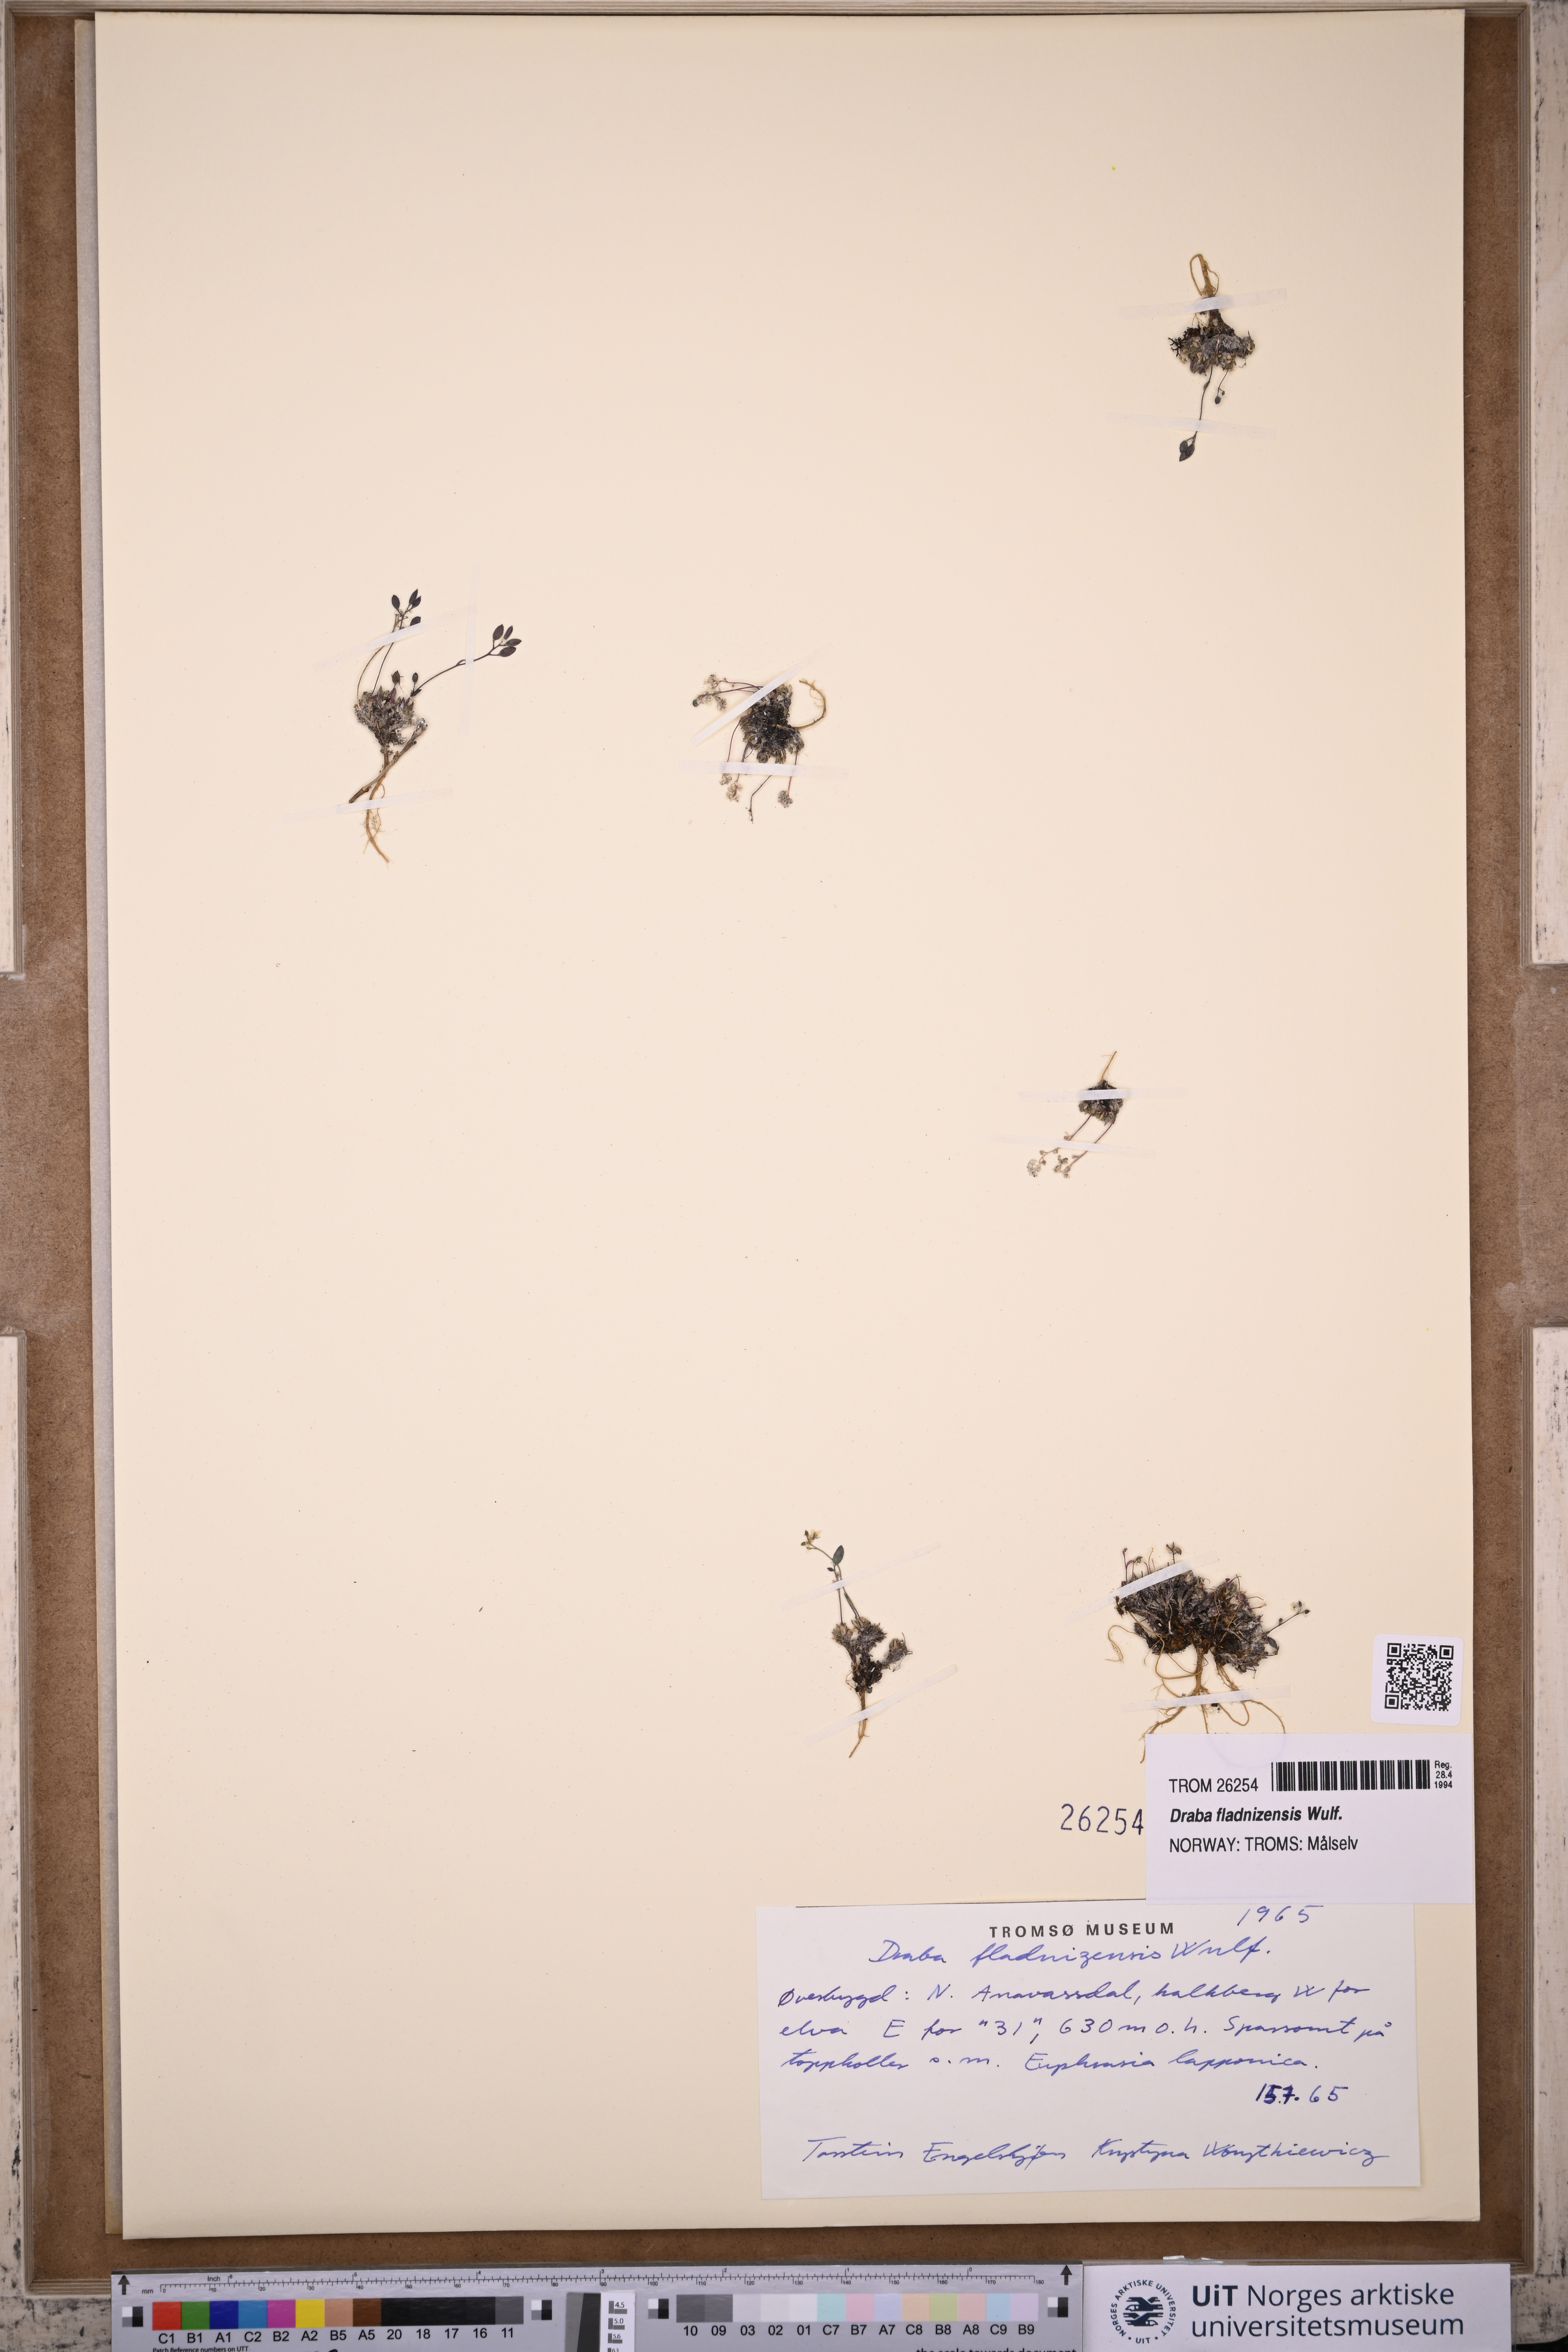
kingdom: Plantae
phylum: Tracheophyta
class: Magnoliopsida
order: Brassicales
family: Brassicaceae
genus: Draba
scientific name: Draba fladnizensis
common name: Austrian draba
